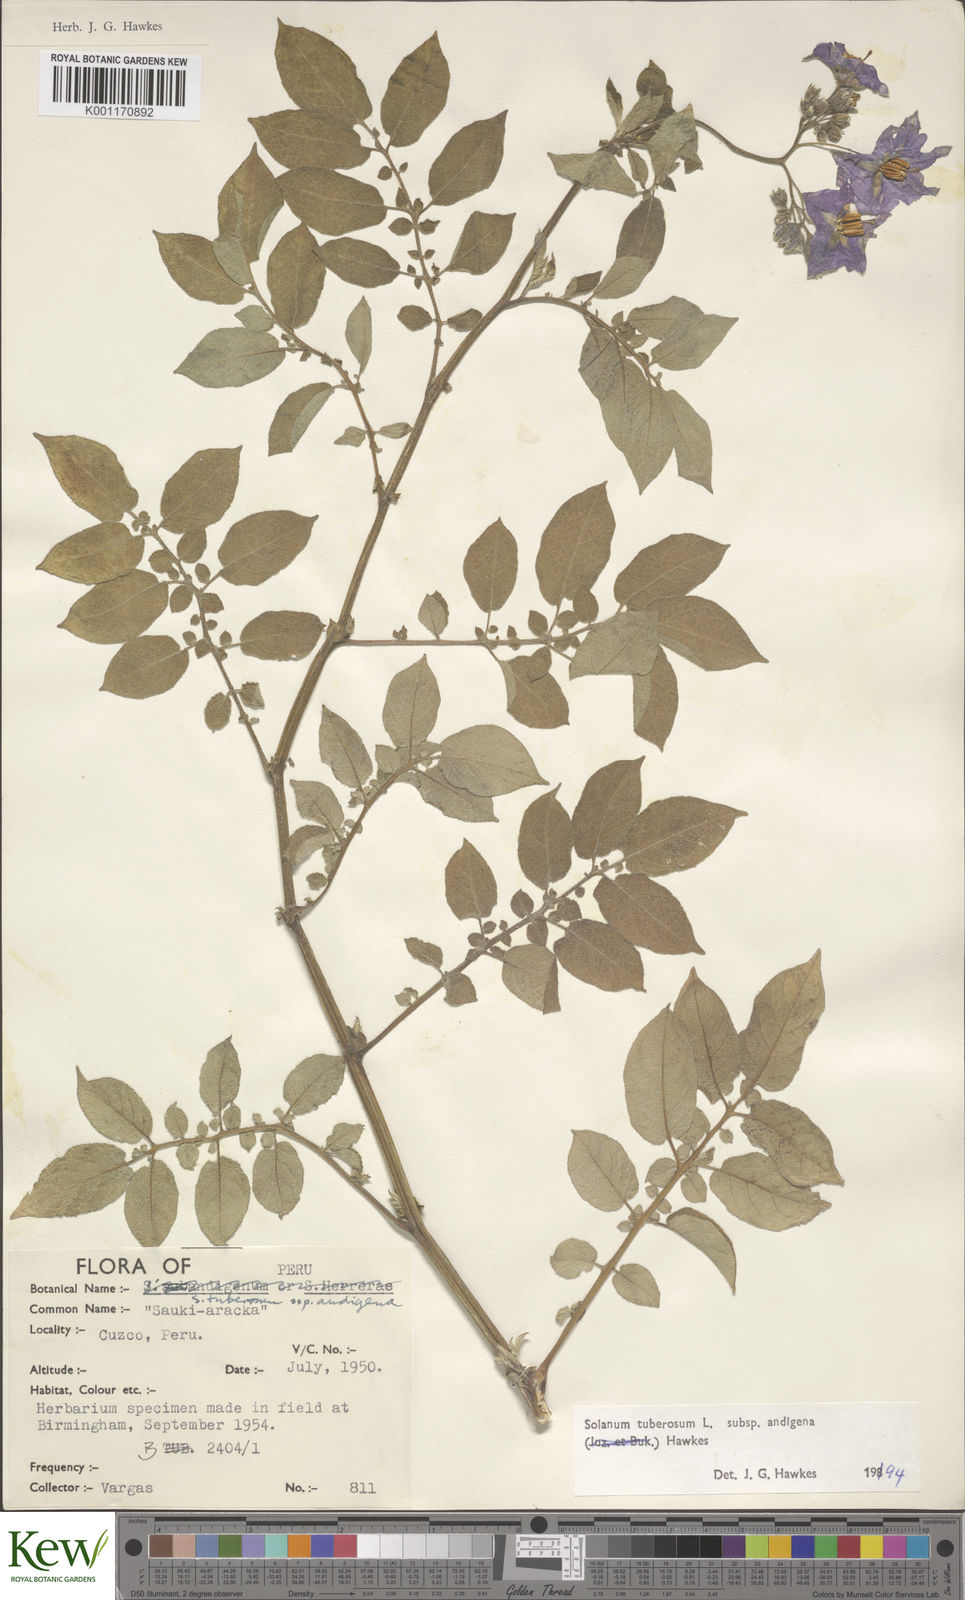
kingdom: Plantae
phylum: Tracheophyta
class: Magnoliopsida
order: Solanales
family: Solanaceae
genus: Solanum
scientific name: Solanum tuberosum
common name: Potato
